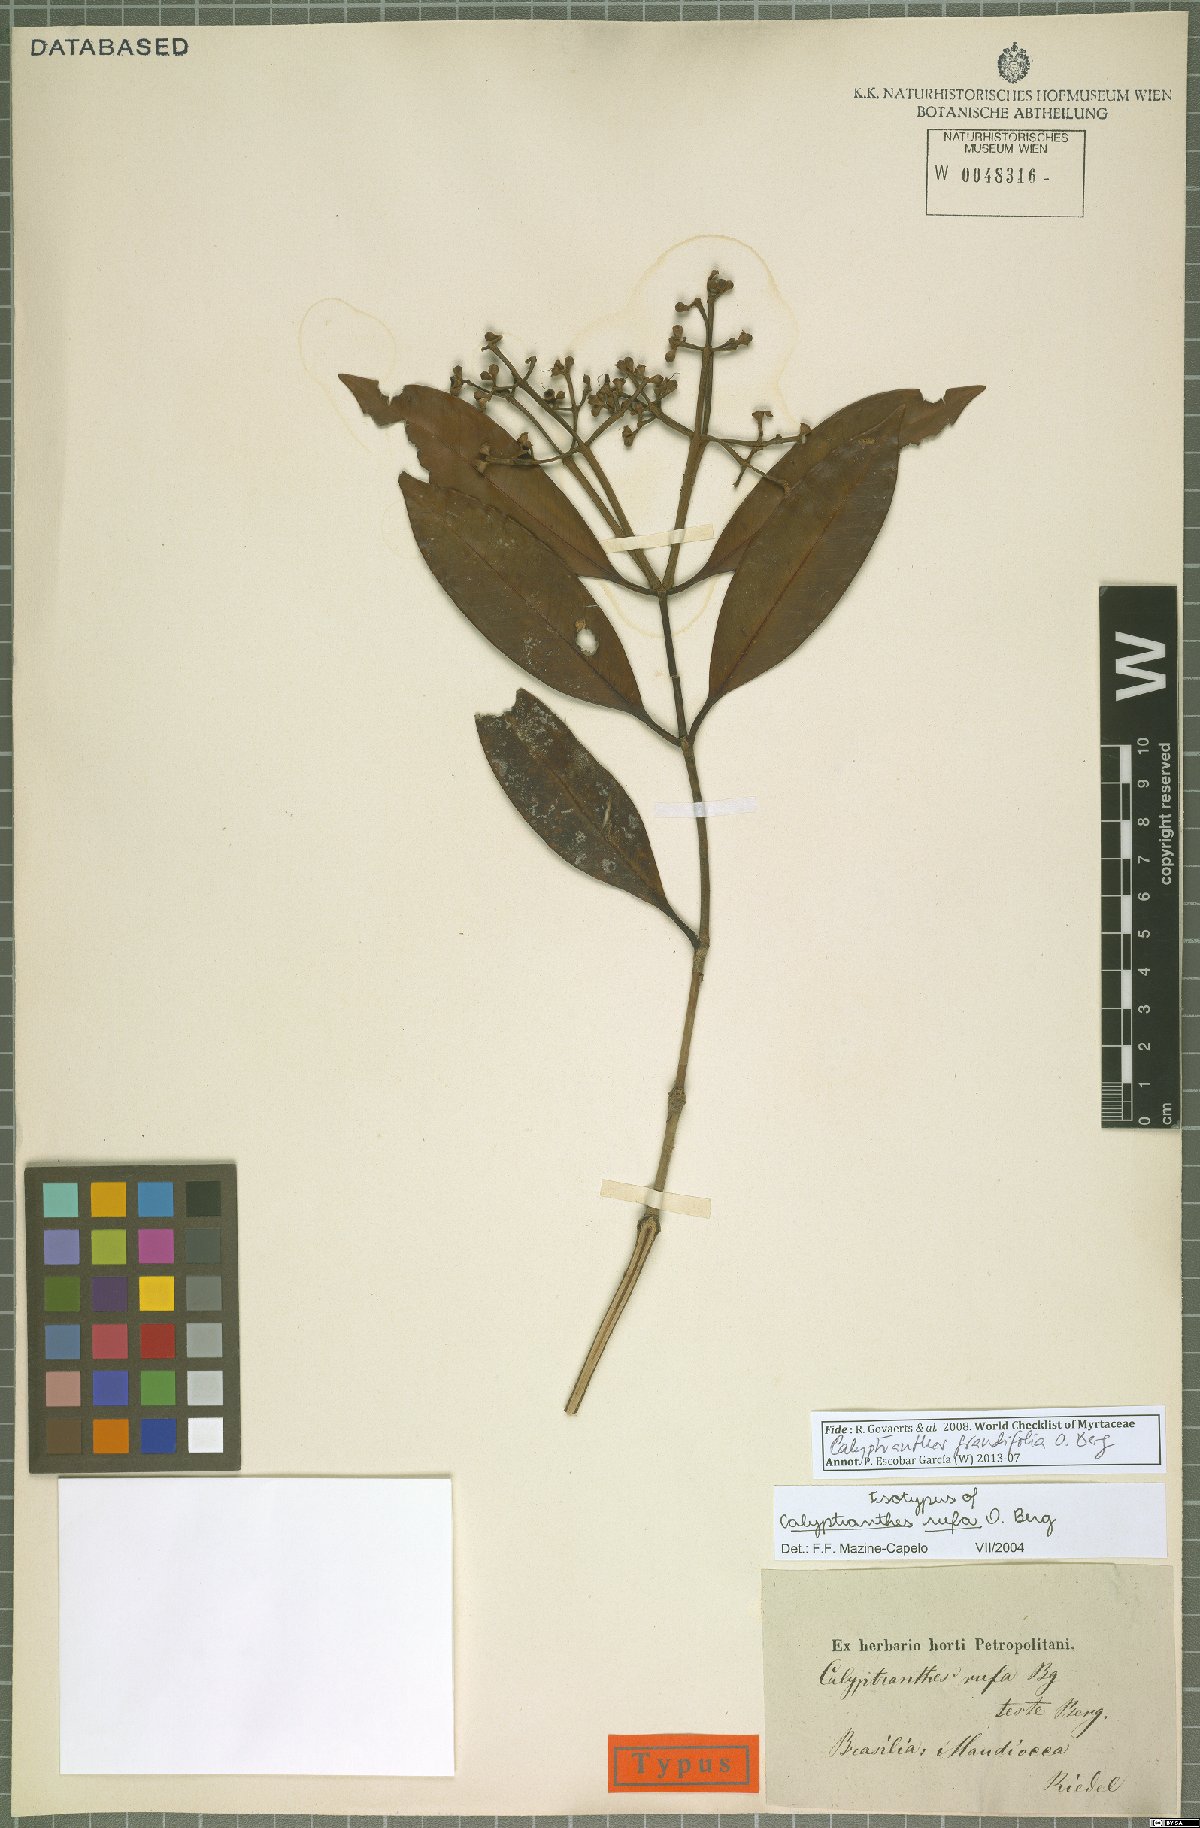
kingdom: Plantae
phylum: Tracheophyta
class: Magnoliopsida
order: Myrtales
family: Myrtaceae
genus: Calyptranthes
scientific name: Calyptranthes grandifolia
